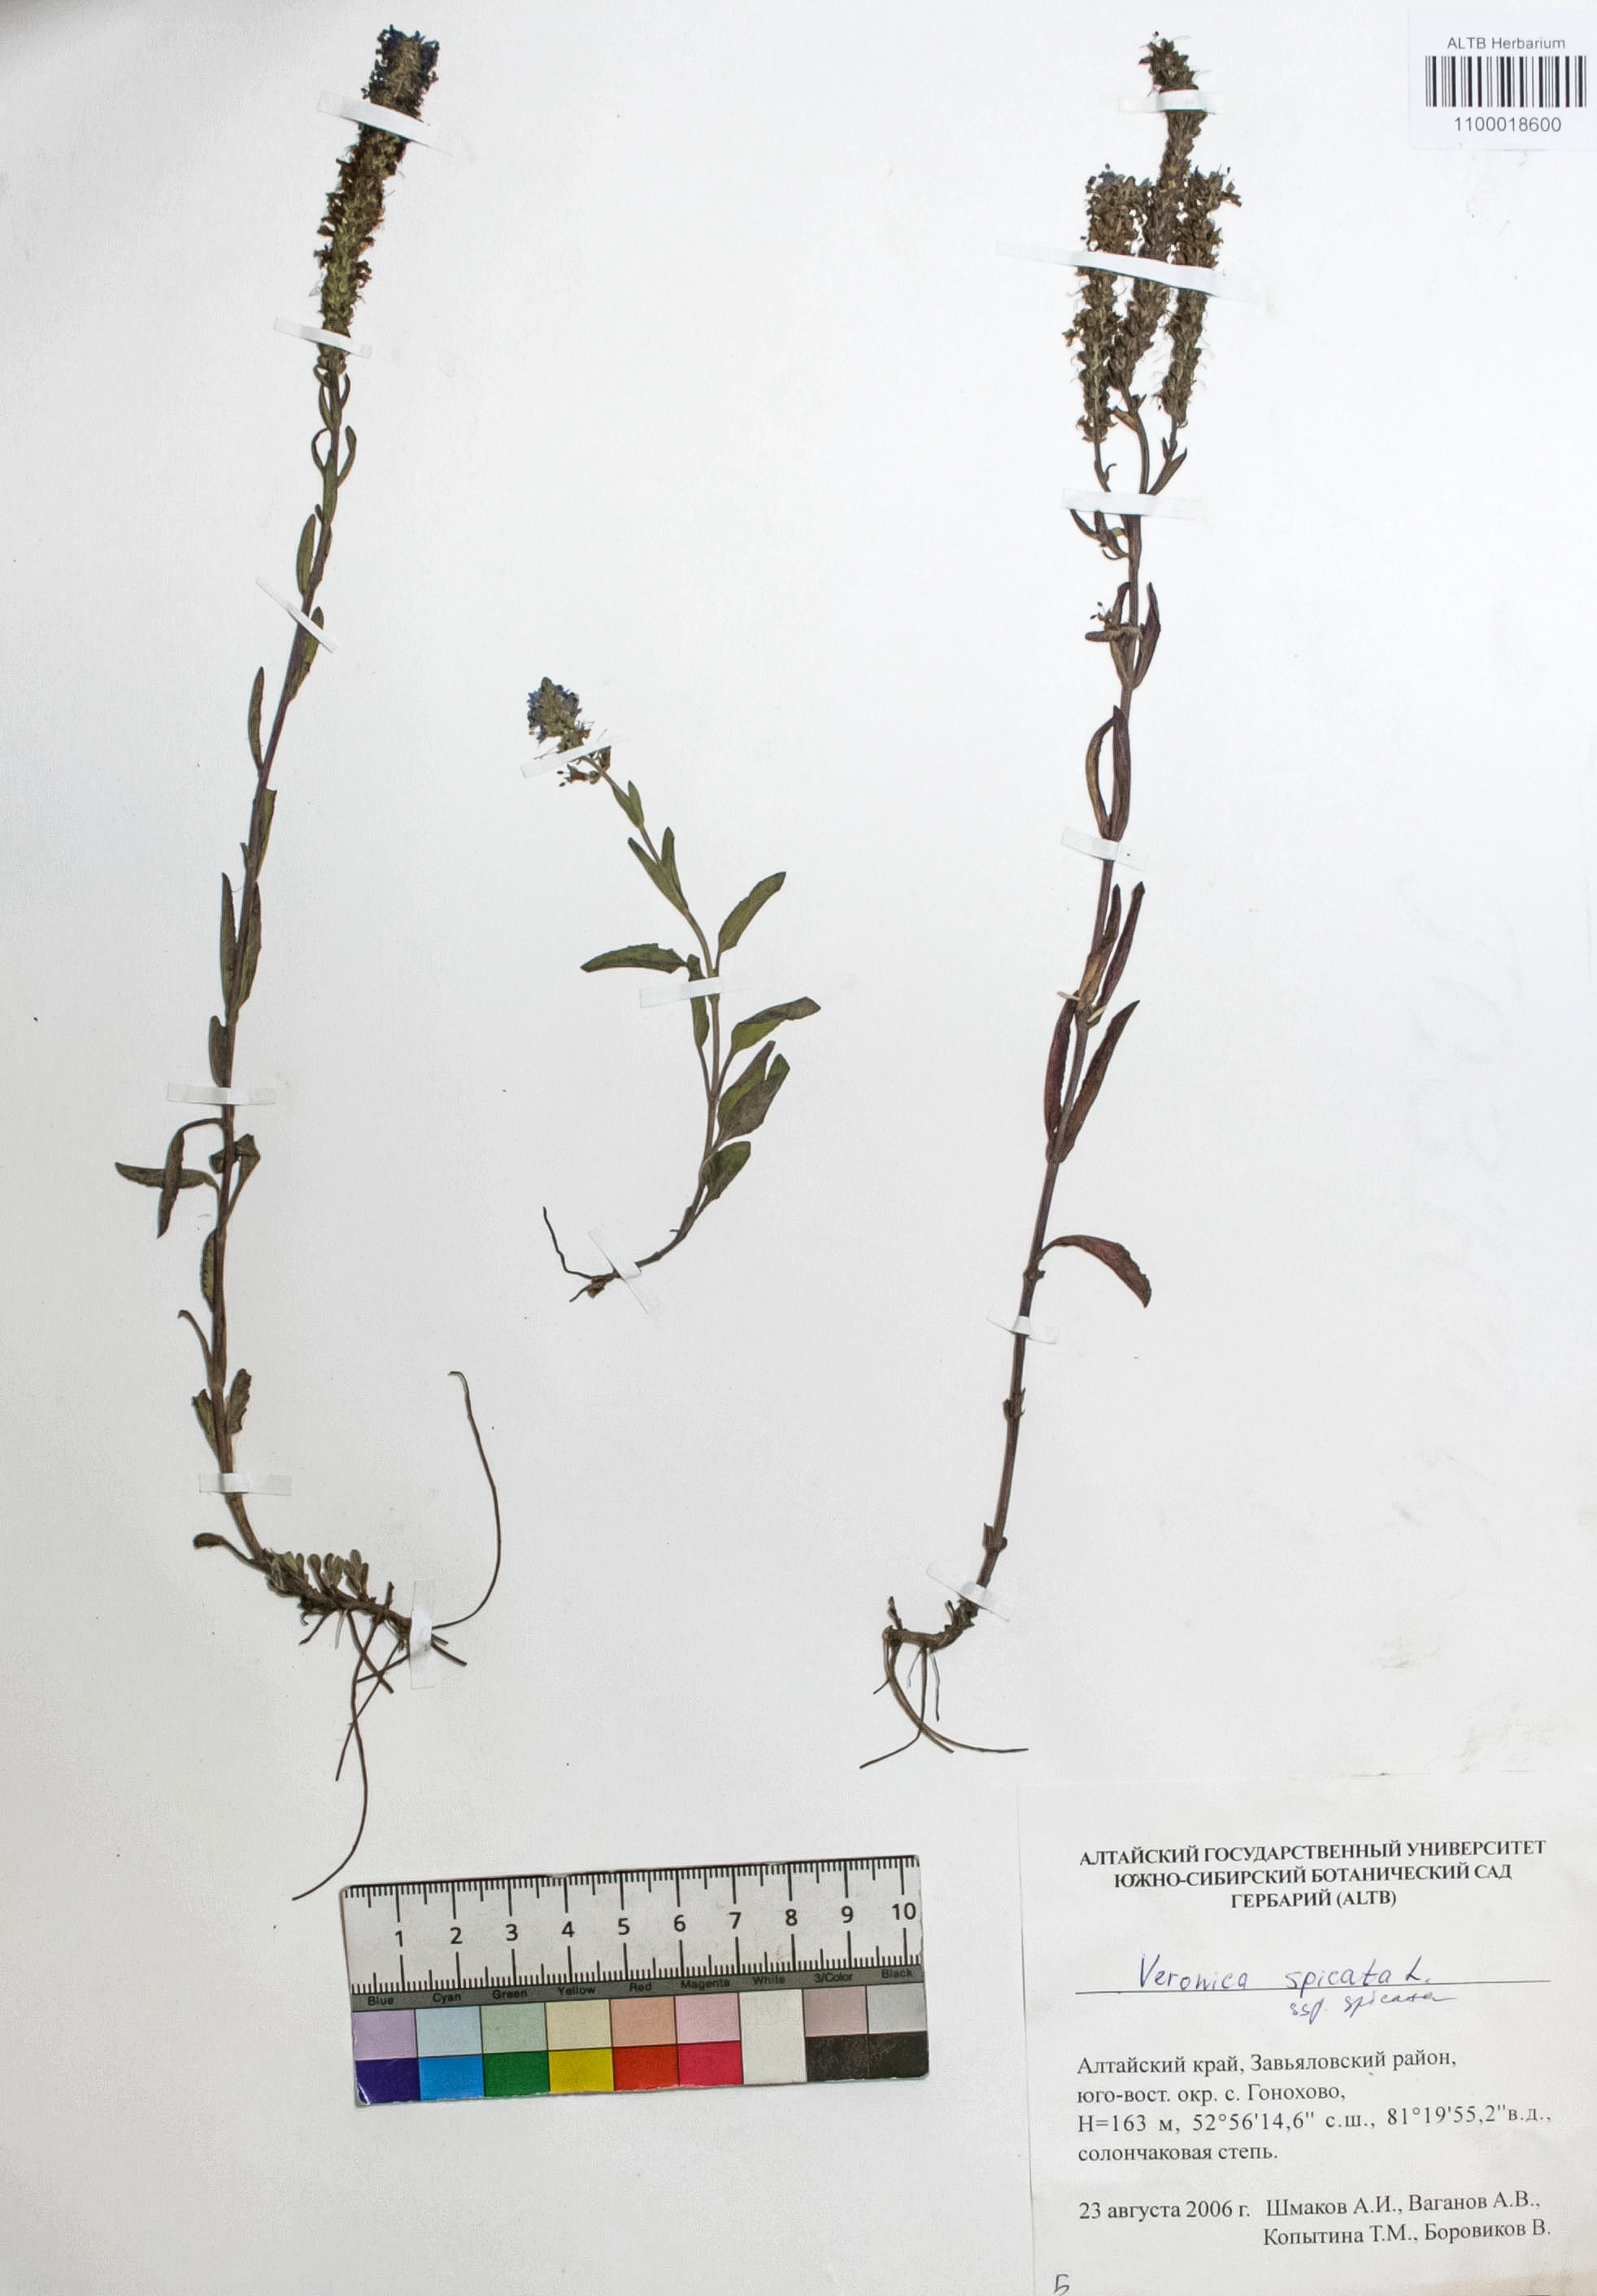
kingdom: Plantae
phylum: Tracheophyta
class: Magnoliopsida
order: Lamiales
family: Plantaginaceae
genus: Veronica
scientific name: Veronica spicata
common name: Spiked speedwell
